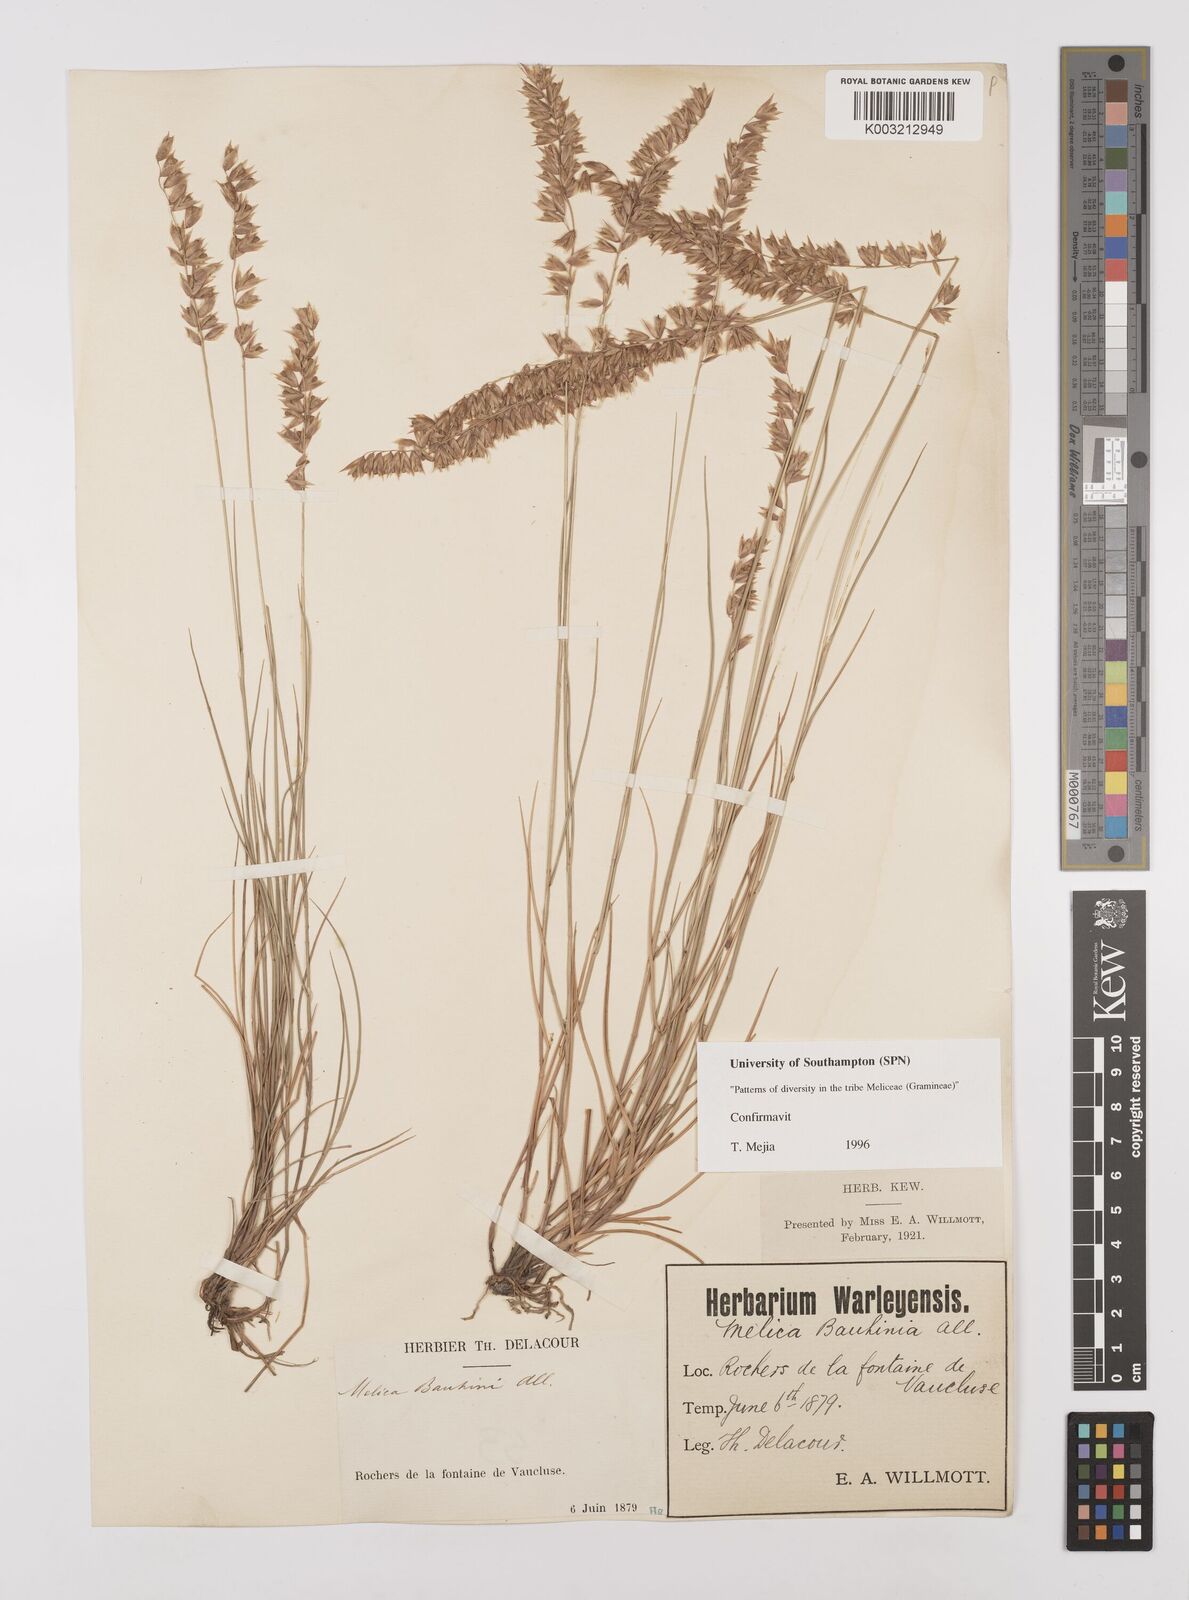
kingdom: Plantae
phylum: Tracheophyta
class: Liliopsida
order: Poales
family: Poaceae
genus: Melica
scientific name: Melica amethystina
